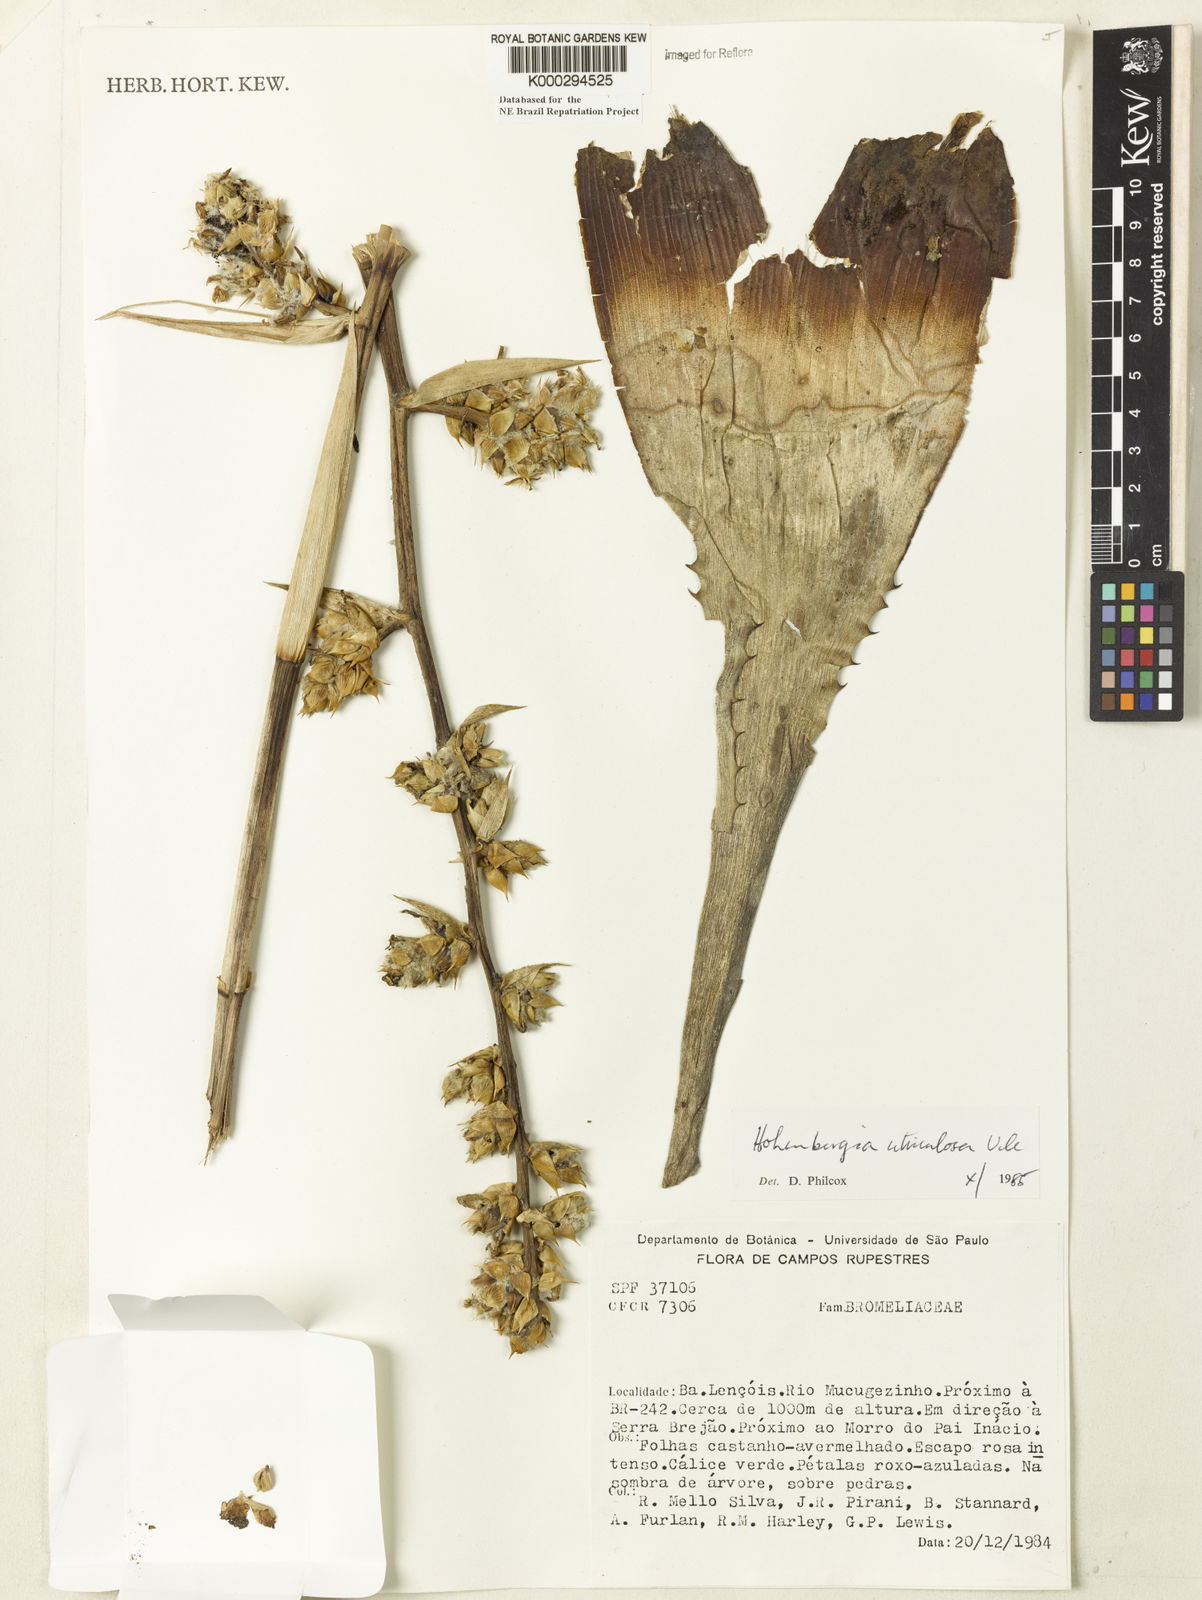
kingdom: Plantae
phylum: Tracheophyta
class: Liliopsida
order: Poales
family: Bromeliaceae
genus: Hohenbergia
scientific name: Hohenbergia utriculosa
